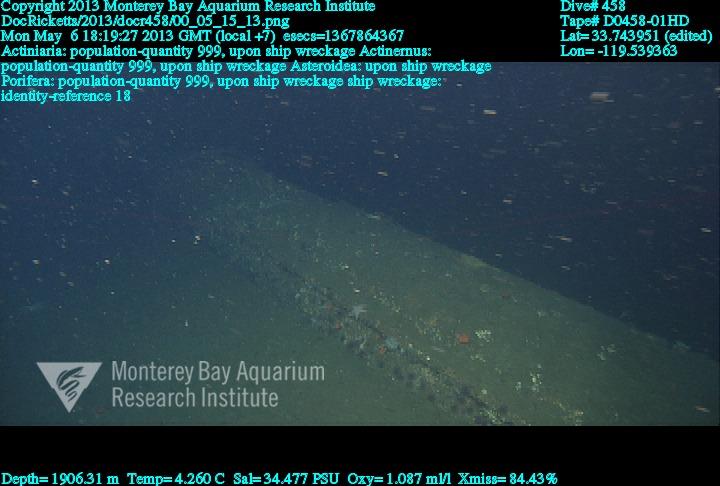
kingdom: Animalia
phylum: Porifera
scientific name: Porifera
